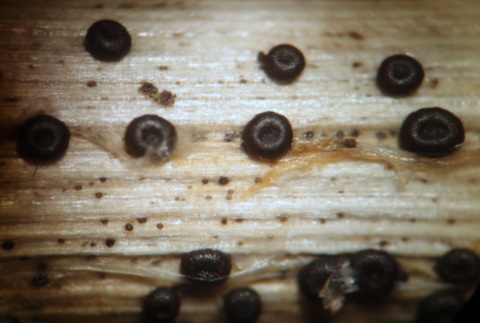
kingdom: Fungi
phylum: Ascomycota
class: Leotiomycetes
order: Helotiales
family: Heterosphaeriaceae
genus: Heterosphaeria
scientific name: Heterosphaeria
